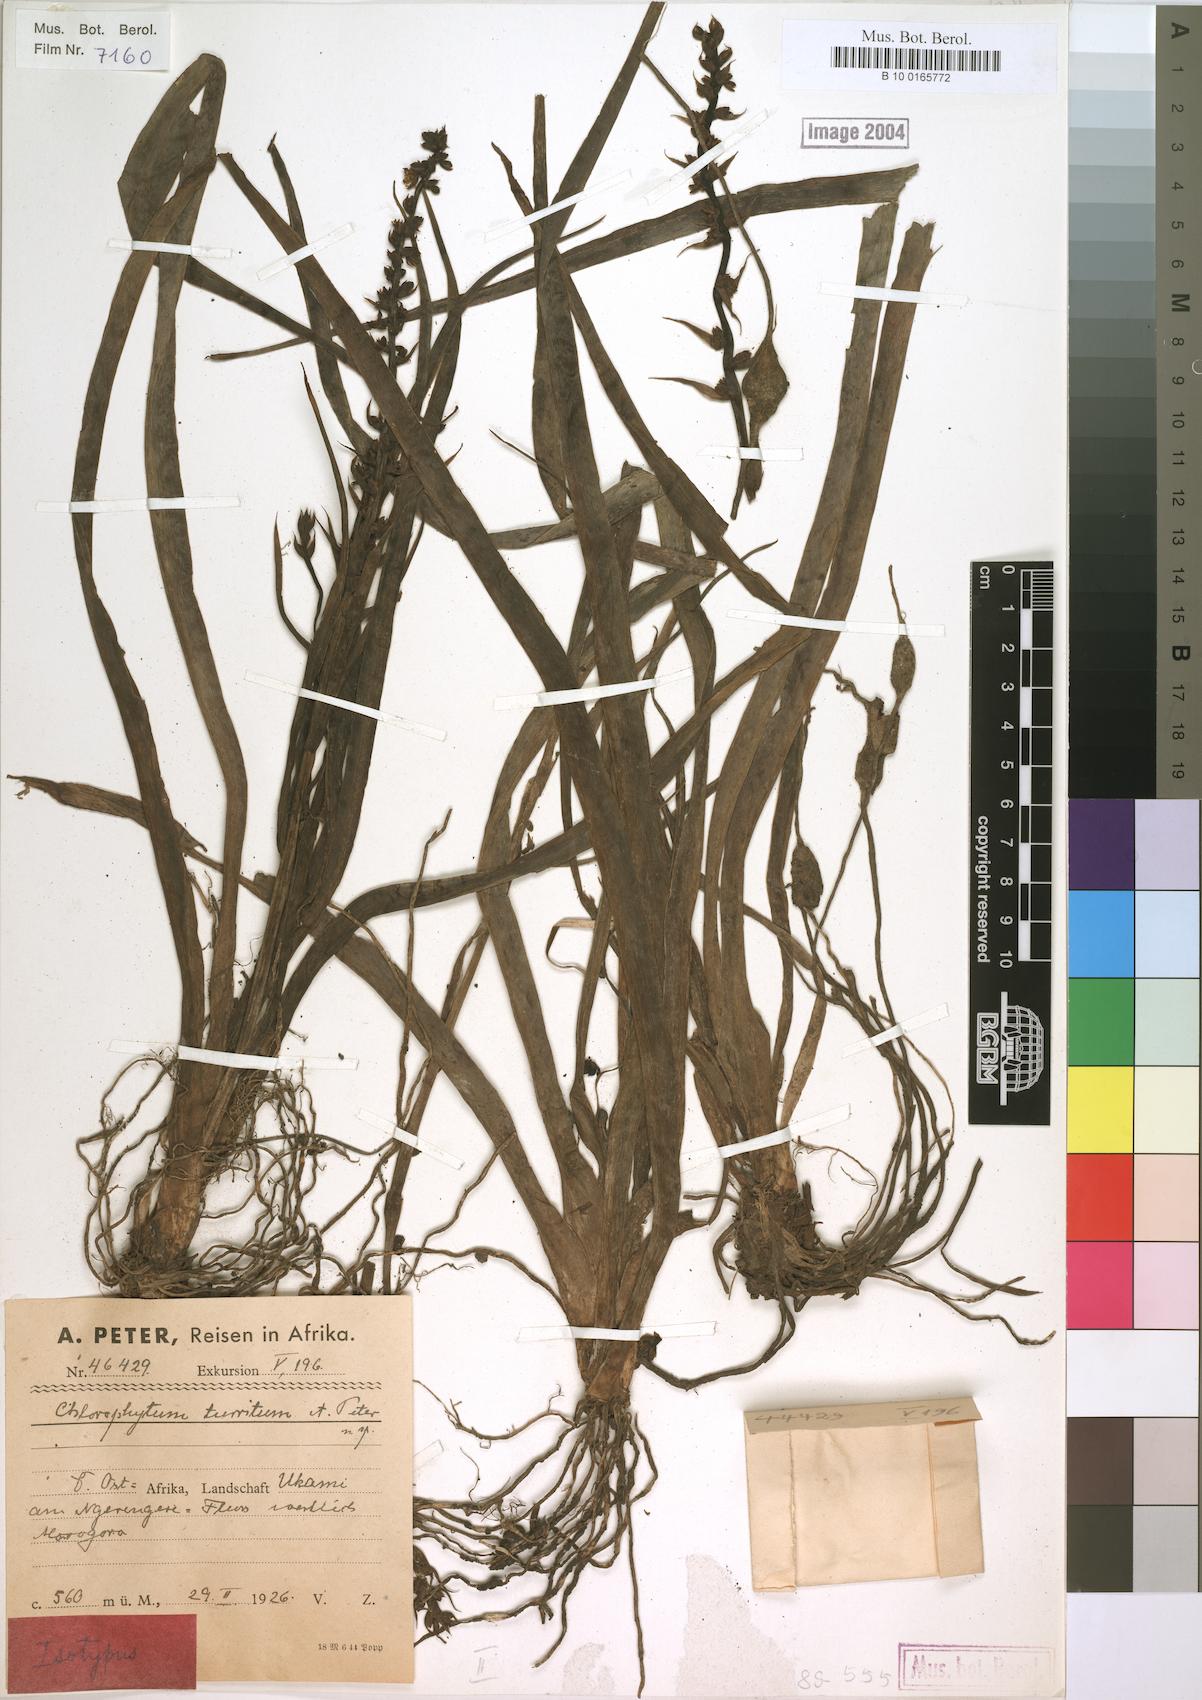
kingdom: Plantae
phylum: Tracheophyta
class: Liliopsida
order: Asparagales
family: Asparagaceae
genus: Chlorophytum
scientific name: Chlorophytum comosum
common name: Spider plant
